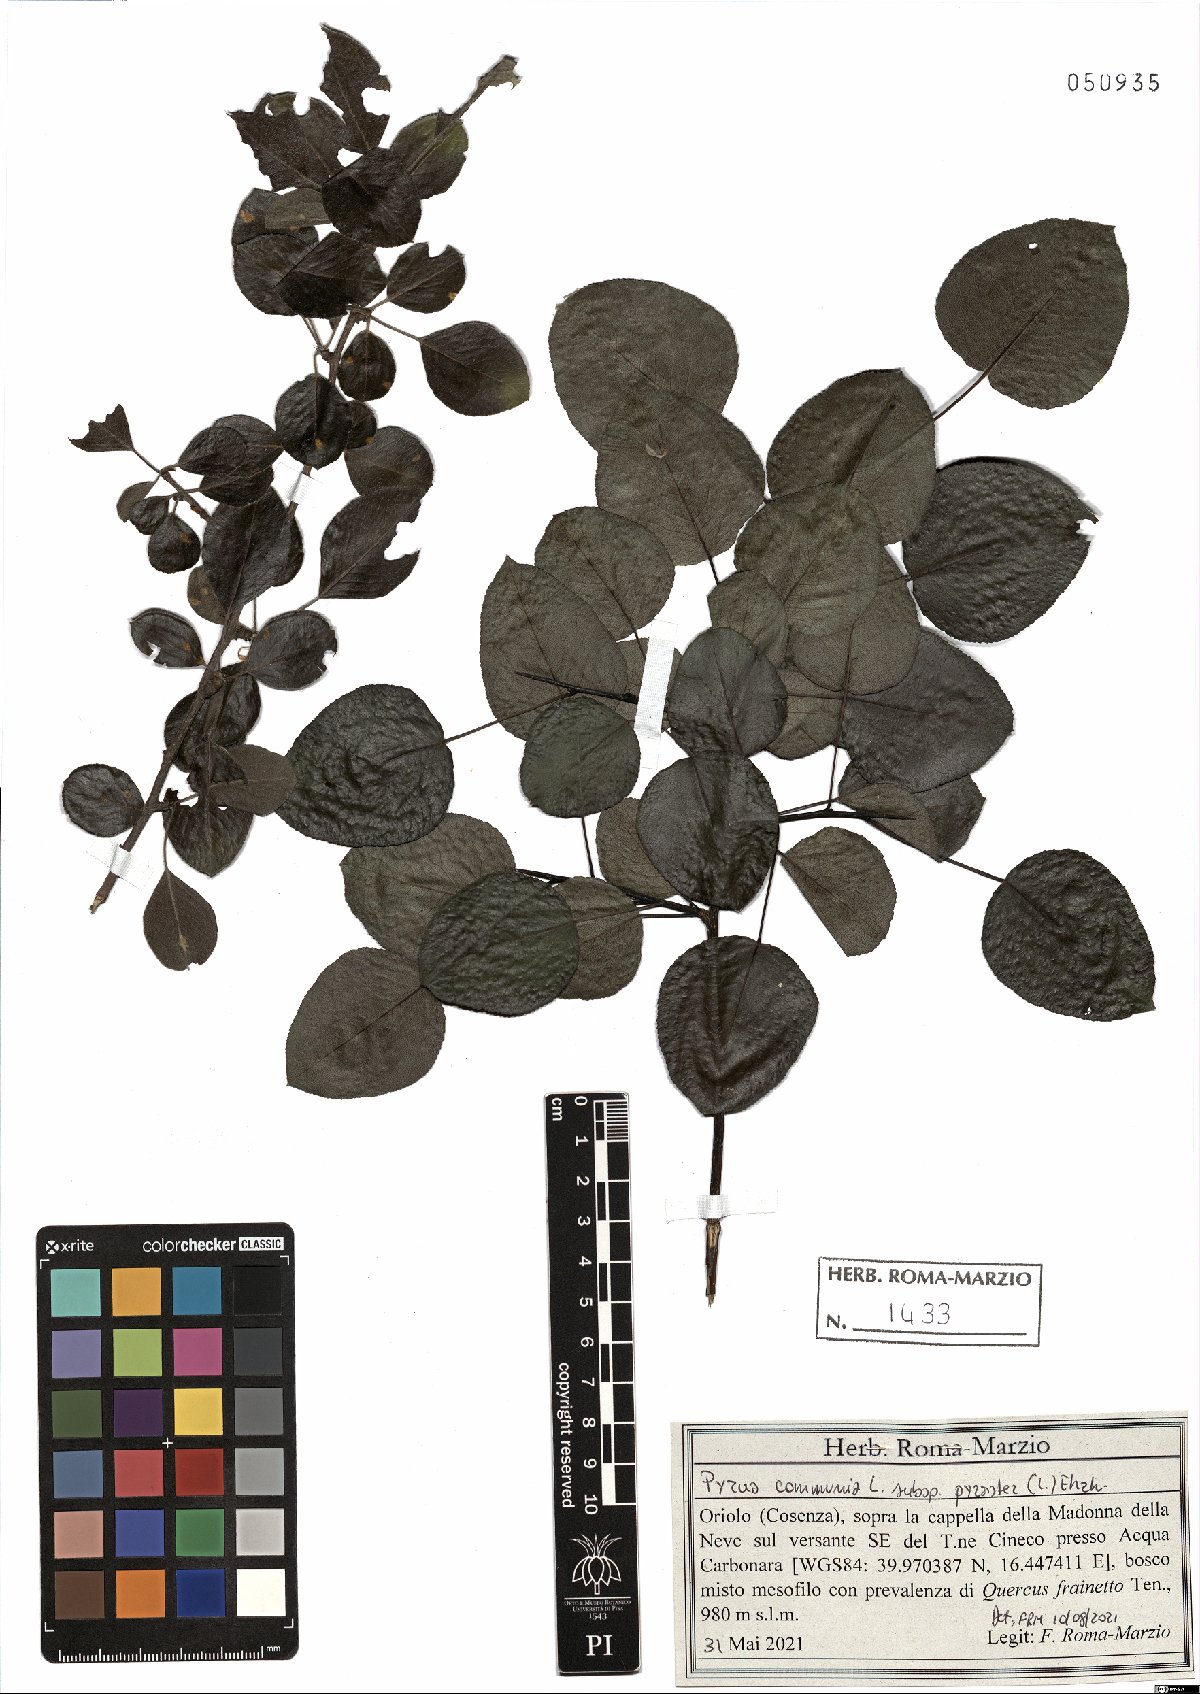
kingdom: Plantae
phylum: Tracheophyta
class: Magnoliopsida
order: Rosales
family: Rosaceae
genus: Pyrus
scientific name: Pyrus pyraster
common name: Wild pear
